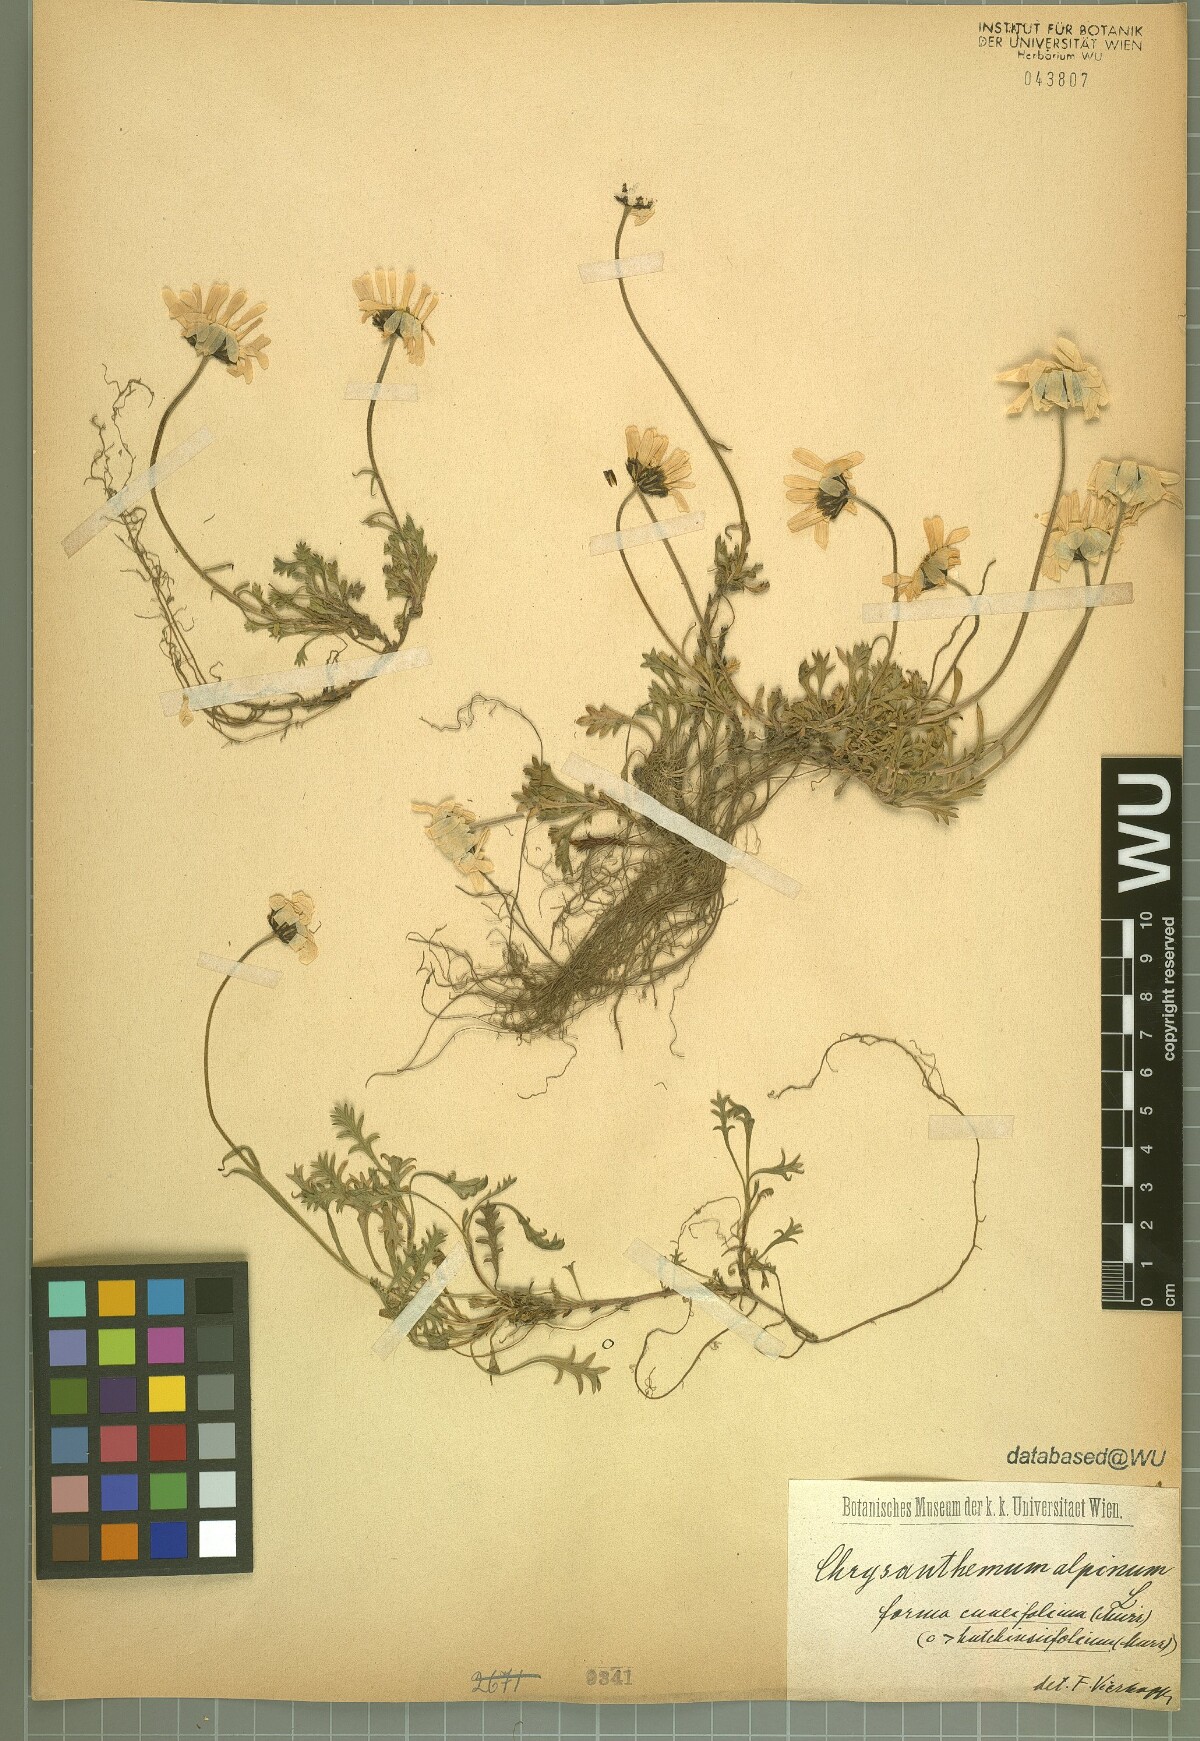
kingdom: Plantae
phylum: Tracheophyta
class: Magnoliopsida
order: Asterales
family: Asteraceae
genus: Leucanthemopsis
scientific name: Leucanthemopsis alpina
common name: Alpine moon daisy
